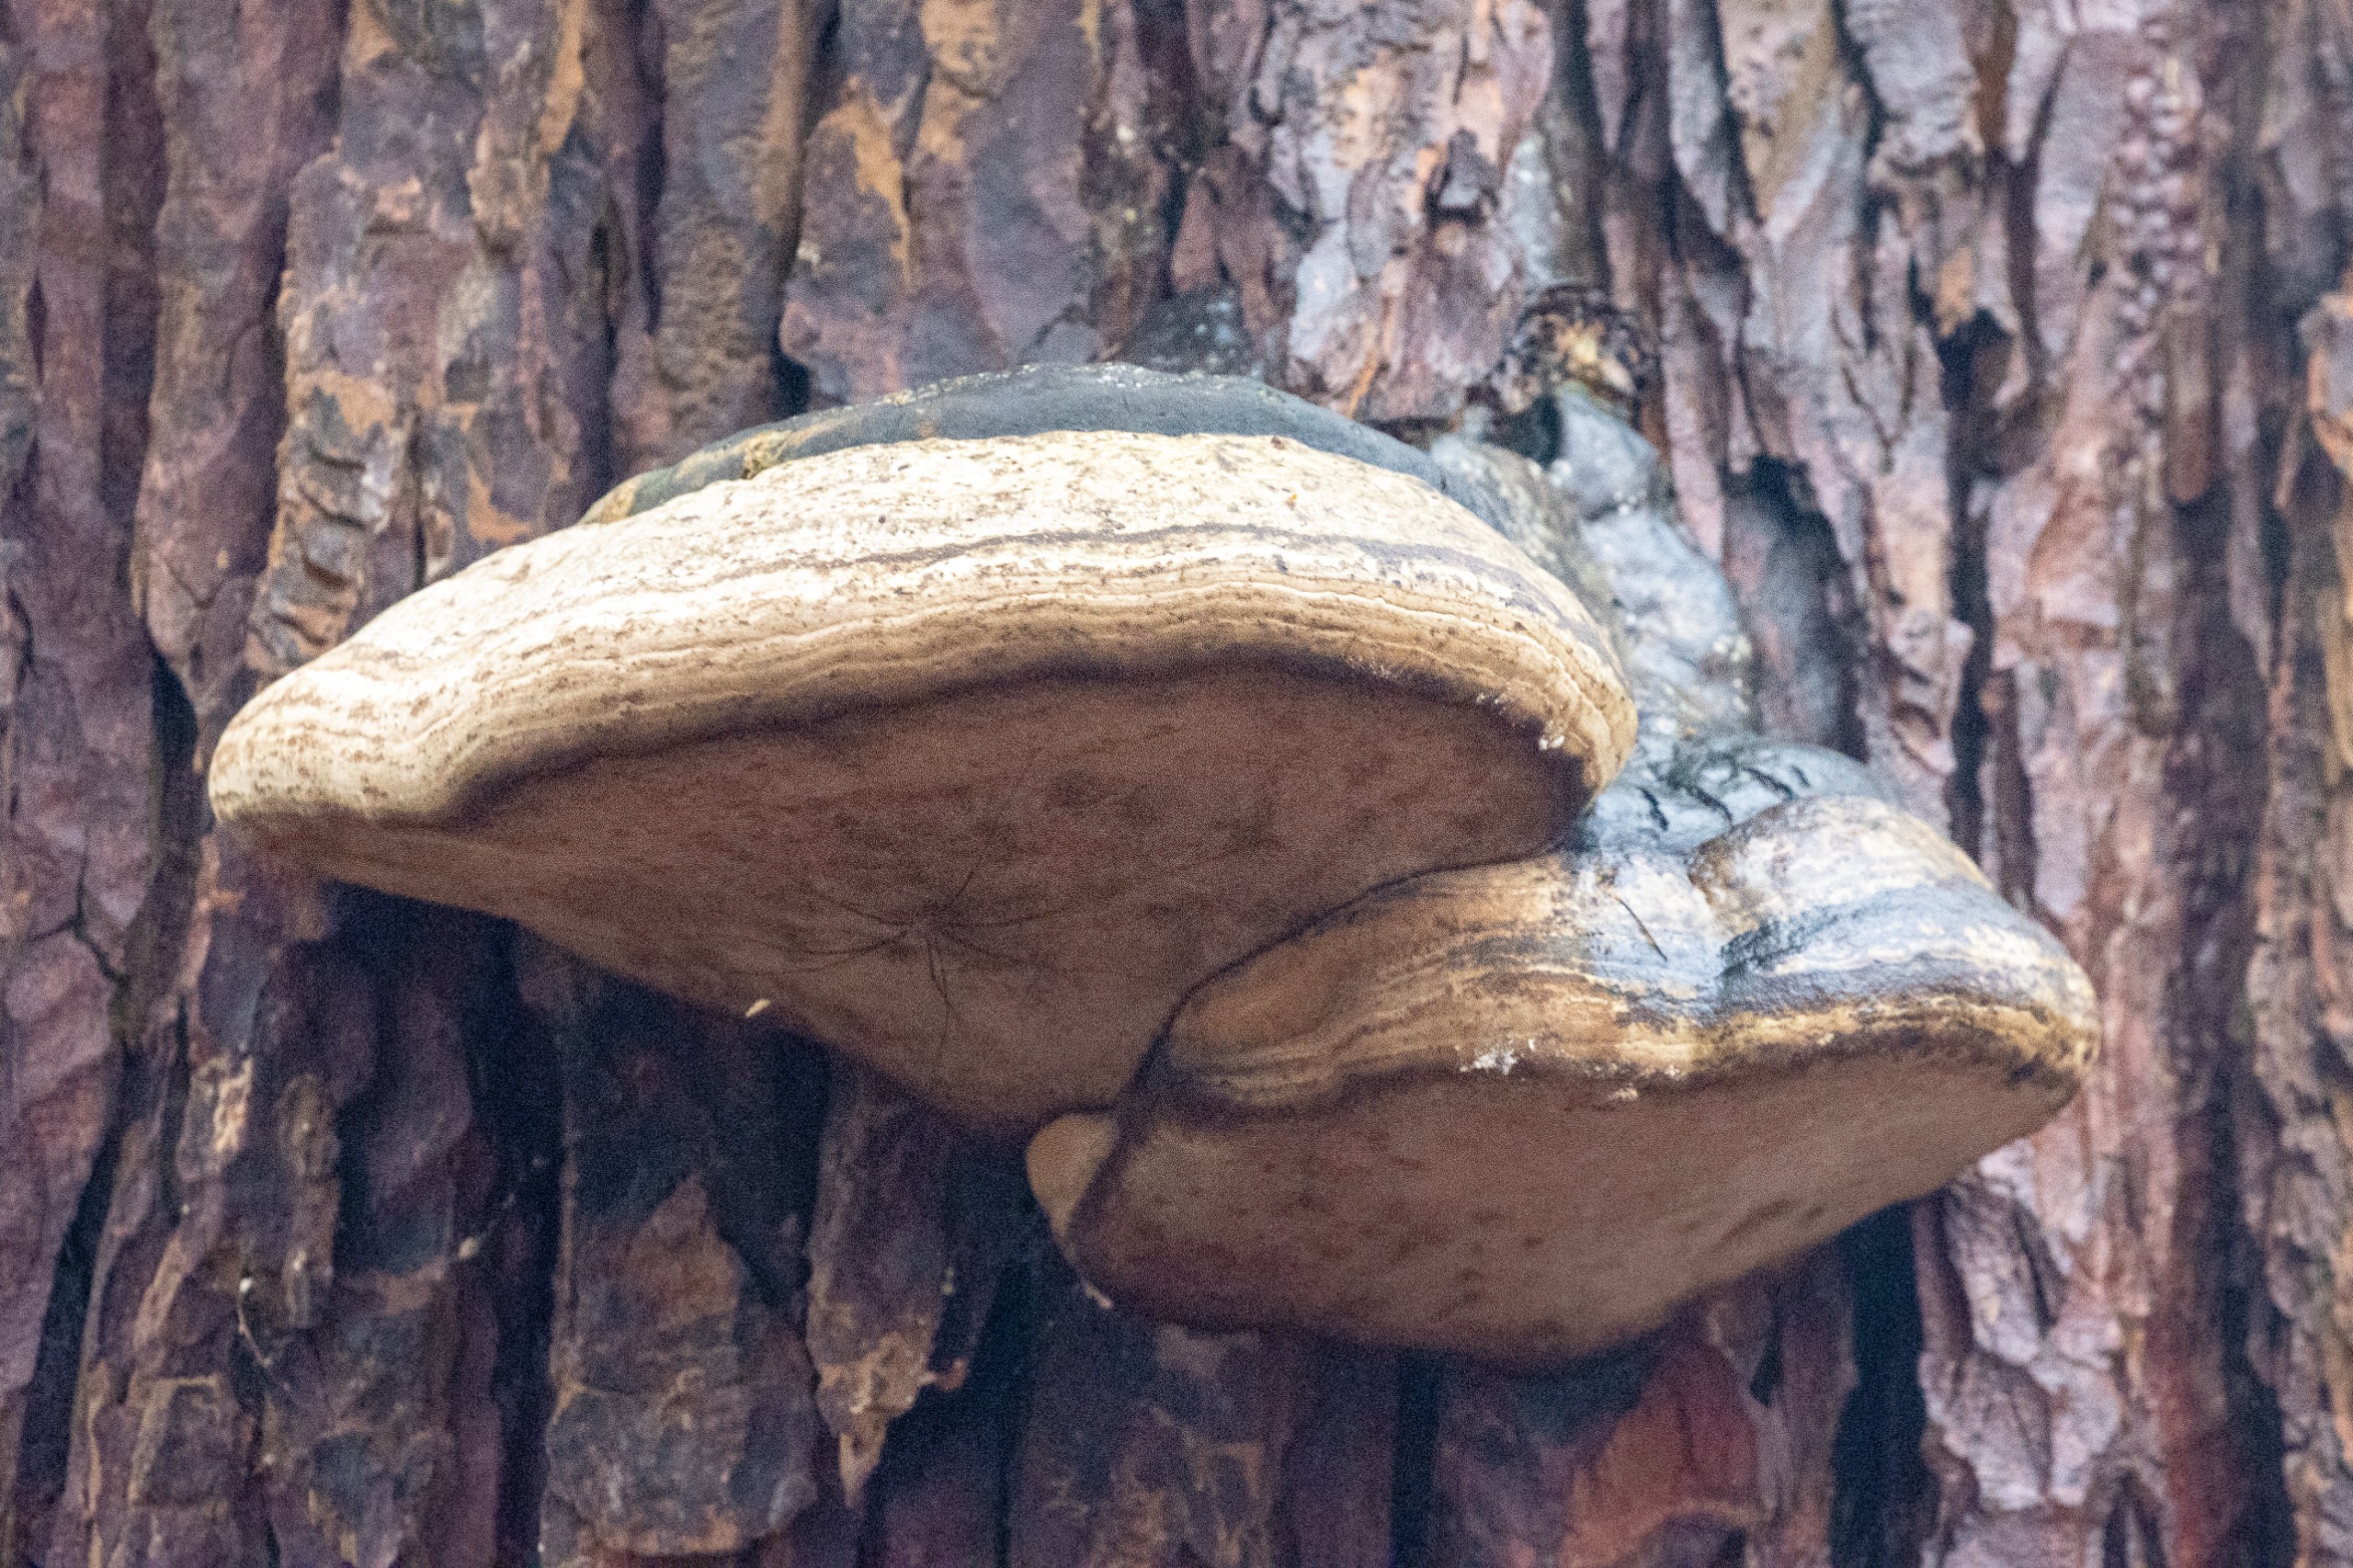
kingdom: Fungi
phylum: Basidiomycota
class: Agaricomycetes
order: Polyporales
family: Polyporaceae
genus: Fomes
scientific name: Fomes fomentarius
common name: Tøndersvamp
